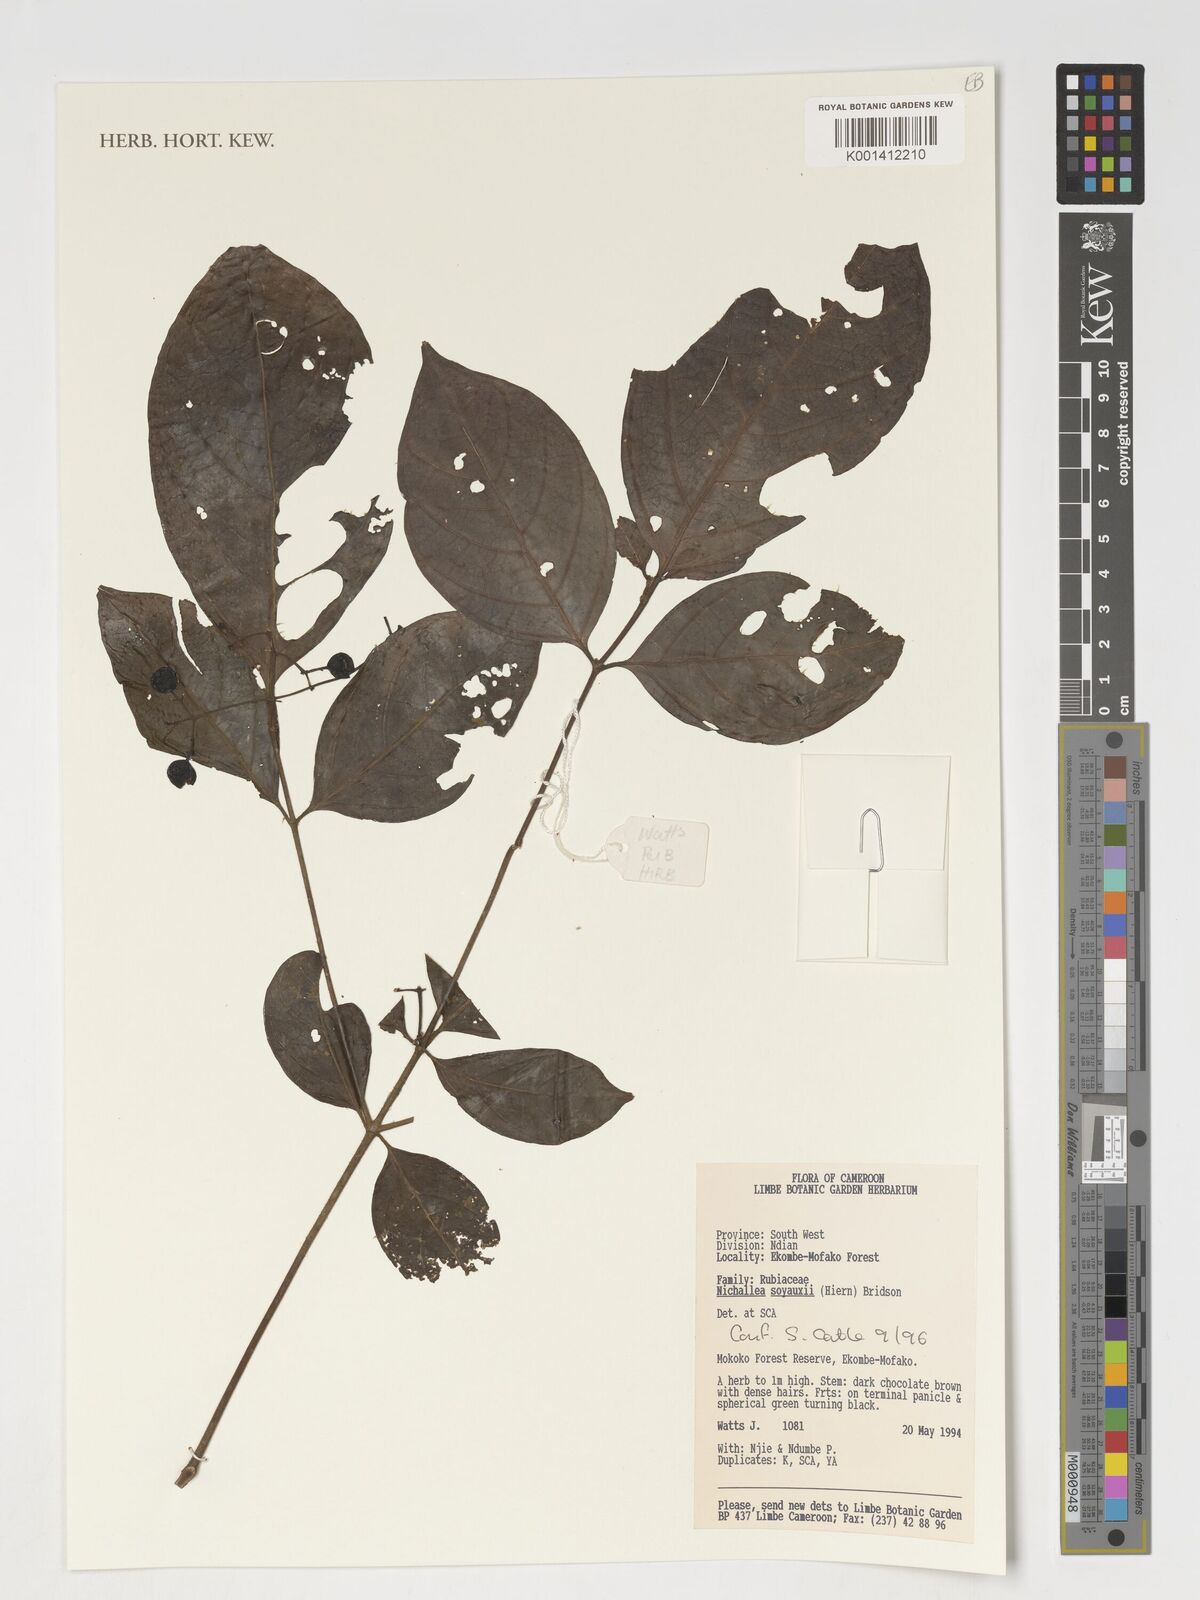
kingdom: Plantae
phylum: Tracheophyta
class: Magnoliopsida
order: Gentianales
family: Rubiaceae
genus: Nichallea
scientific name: Nichallea soyauxii
